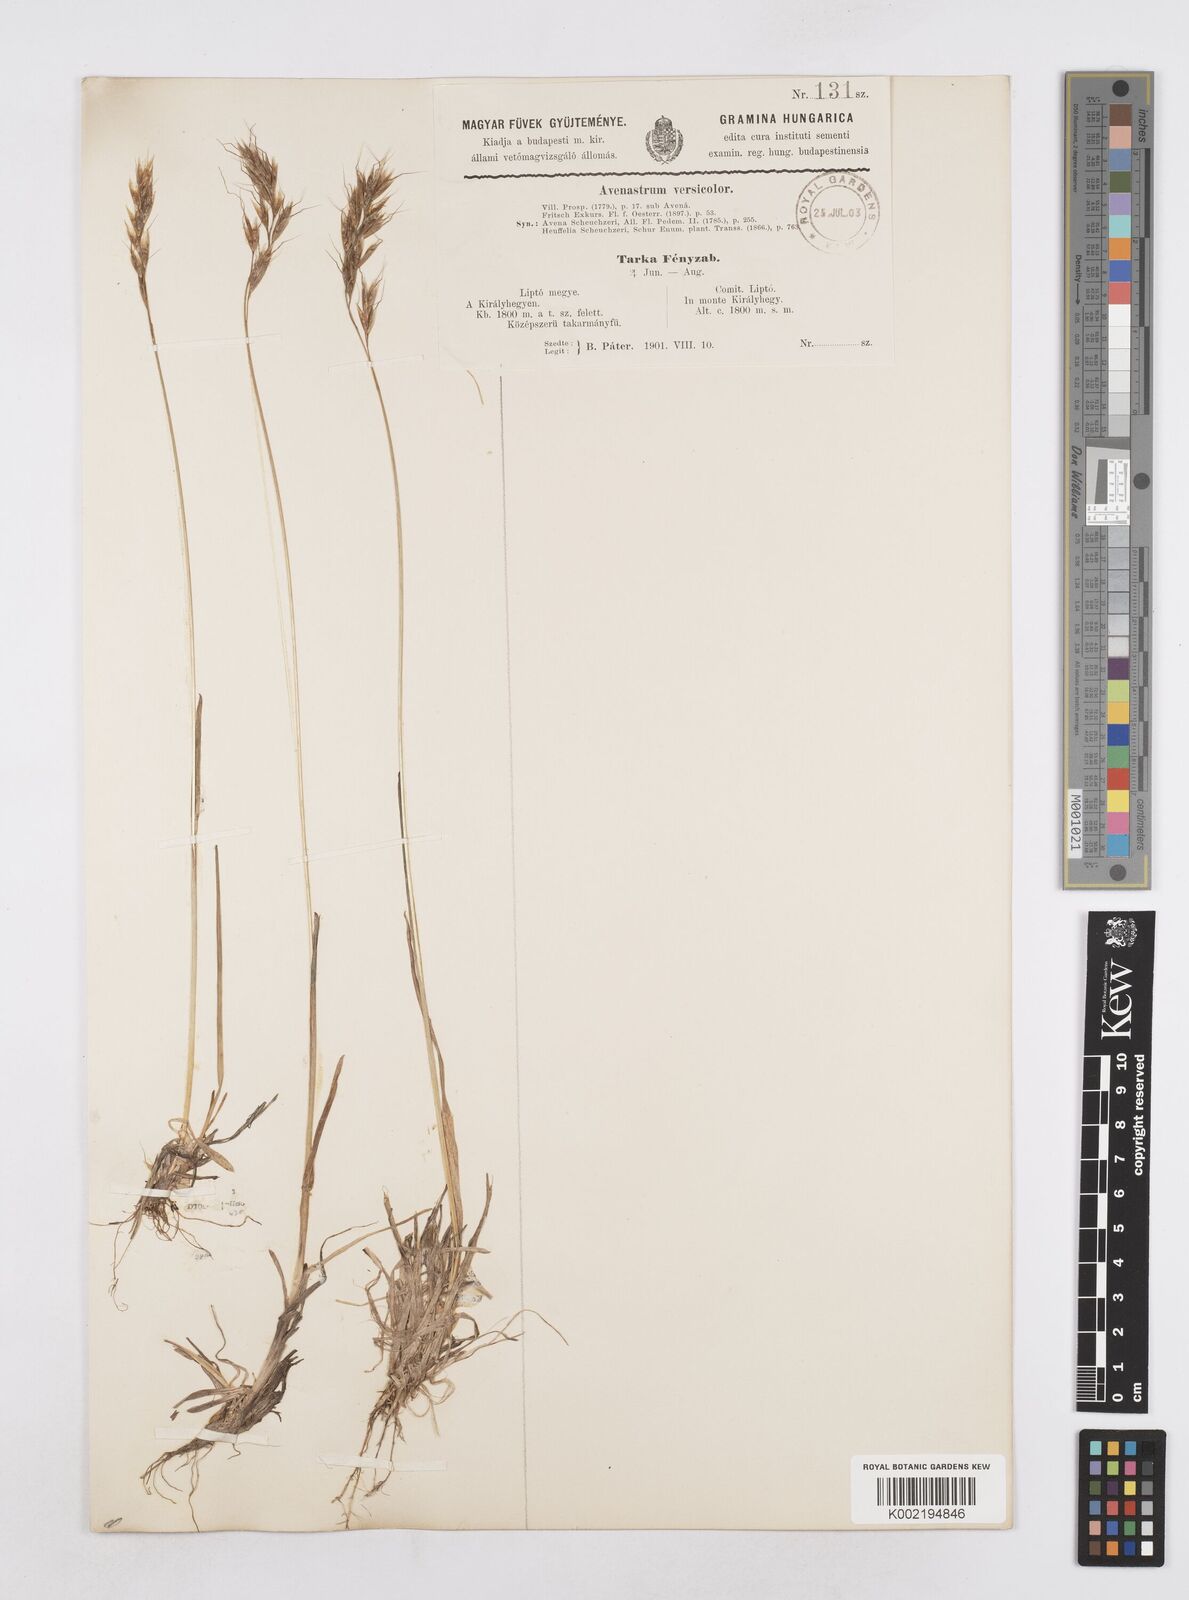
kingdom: Plantae
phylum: Tracheophyta
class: Liliopsida
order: Poales
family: Poaceae
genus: Helictochloa
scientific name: Helictochloa versicolor
